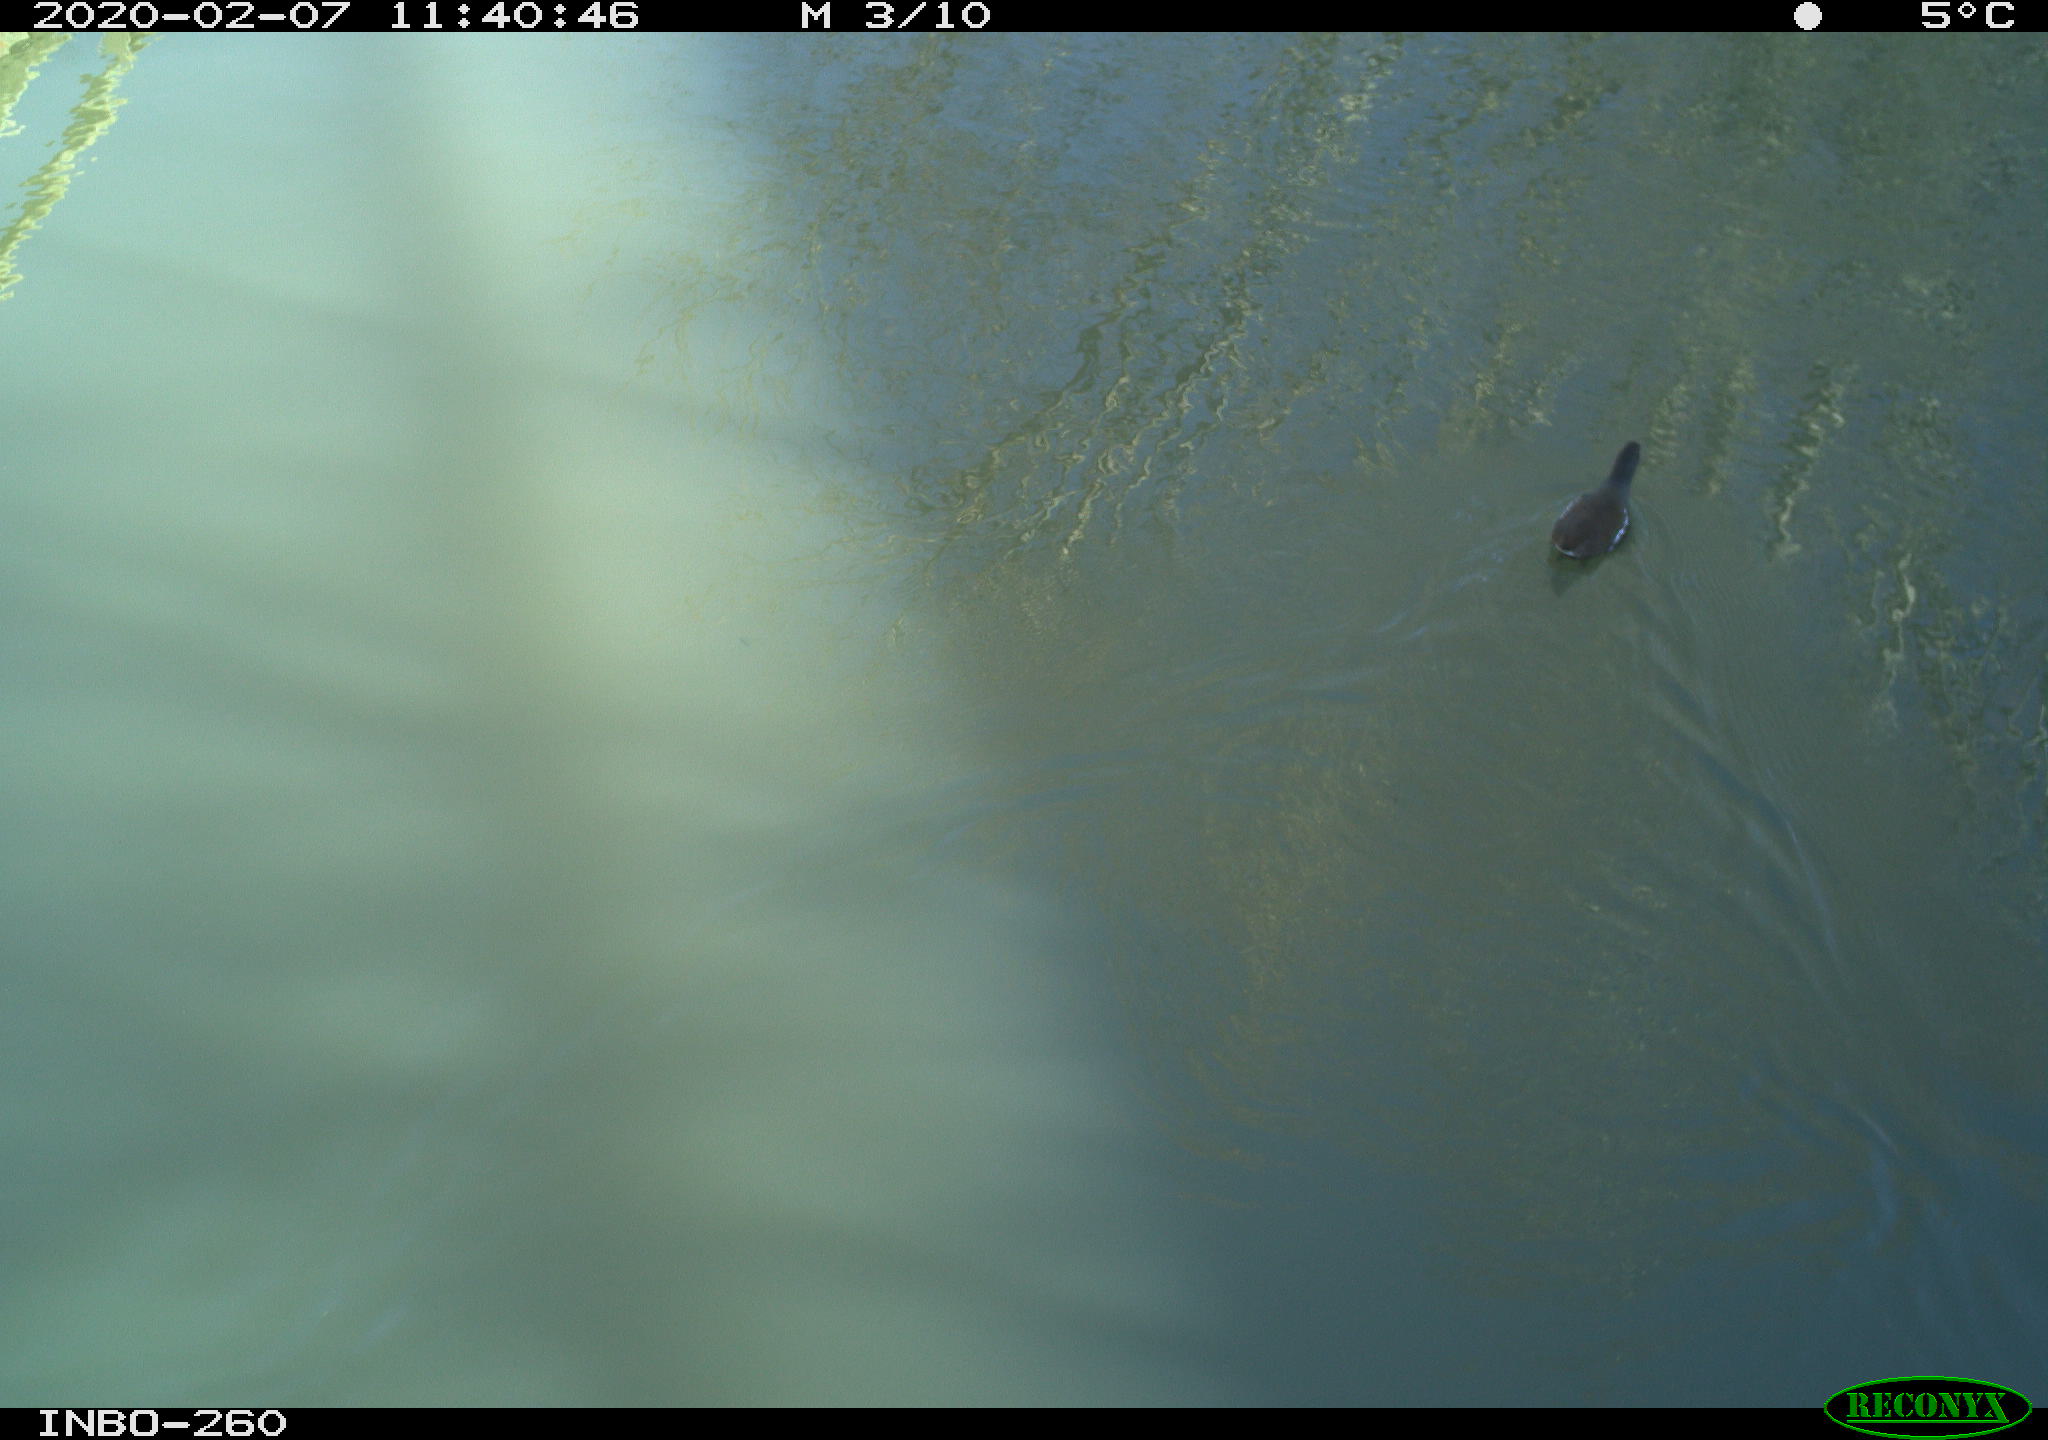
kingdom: Animalia
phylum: Chordata
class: Aves
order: Gruiformes
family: Rallidae
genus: Gallinula
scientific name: Gallinula chloropus
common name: Common moorhen
